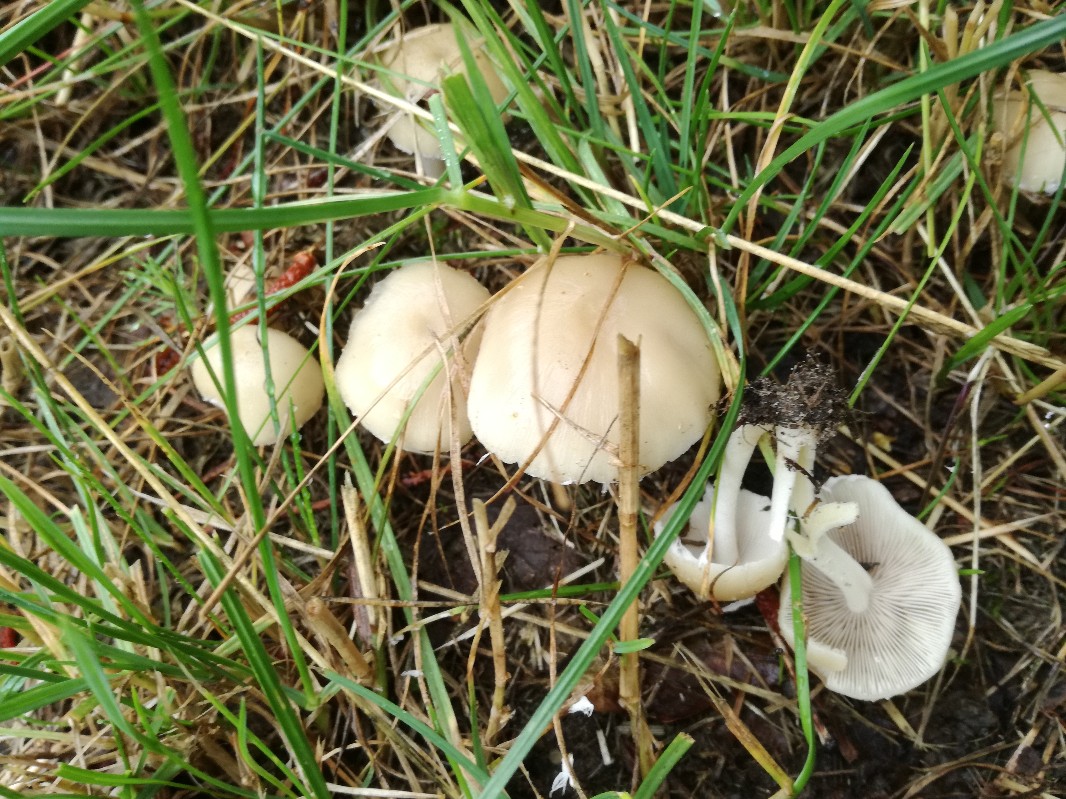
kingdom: Fungi
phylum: Basidiomycota
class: Agaricomycetes
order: Agaricales
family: Psathyrellaceae
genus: Candolleomyces
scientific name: Candolleomyces candolleanus
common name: Candolles mørkhat
